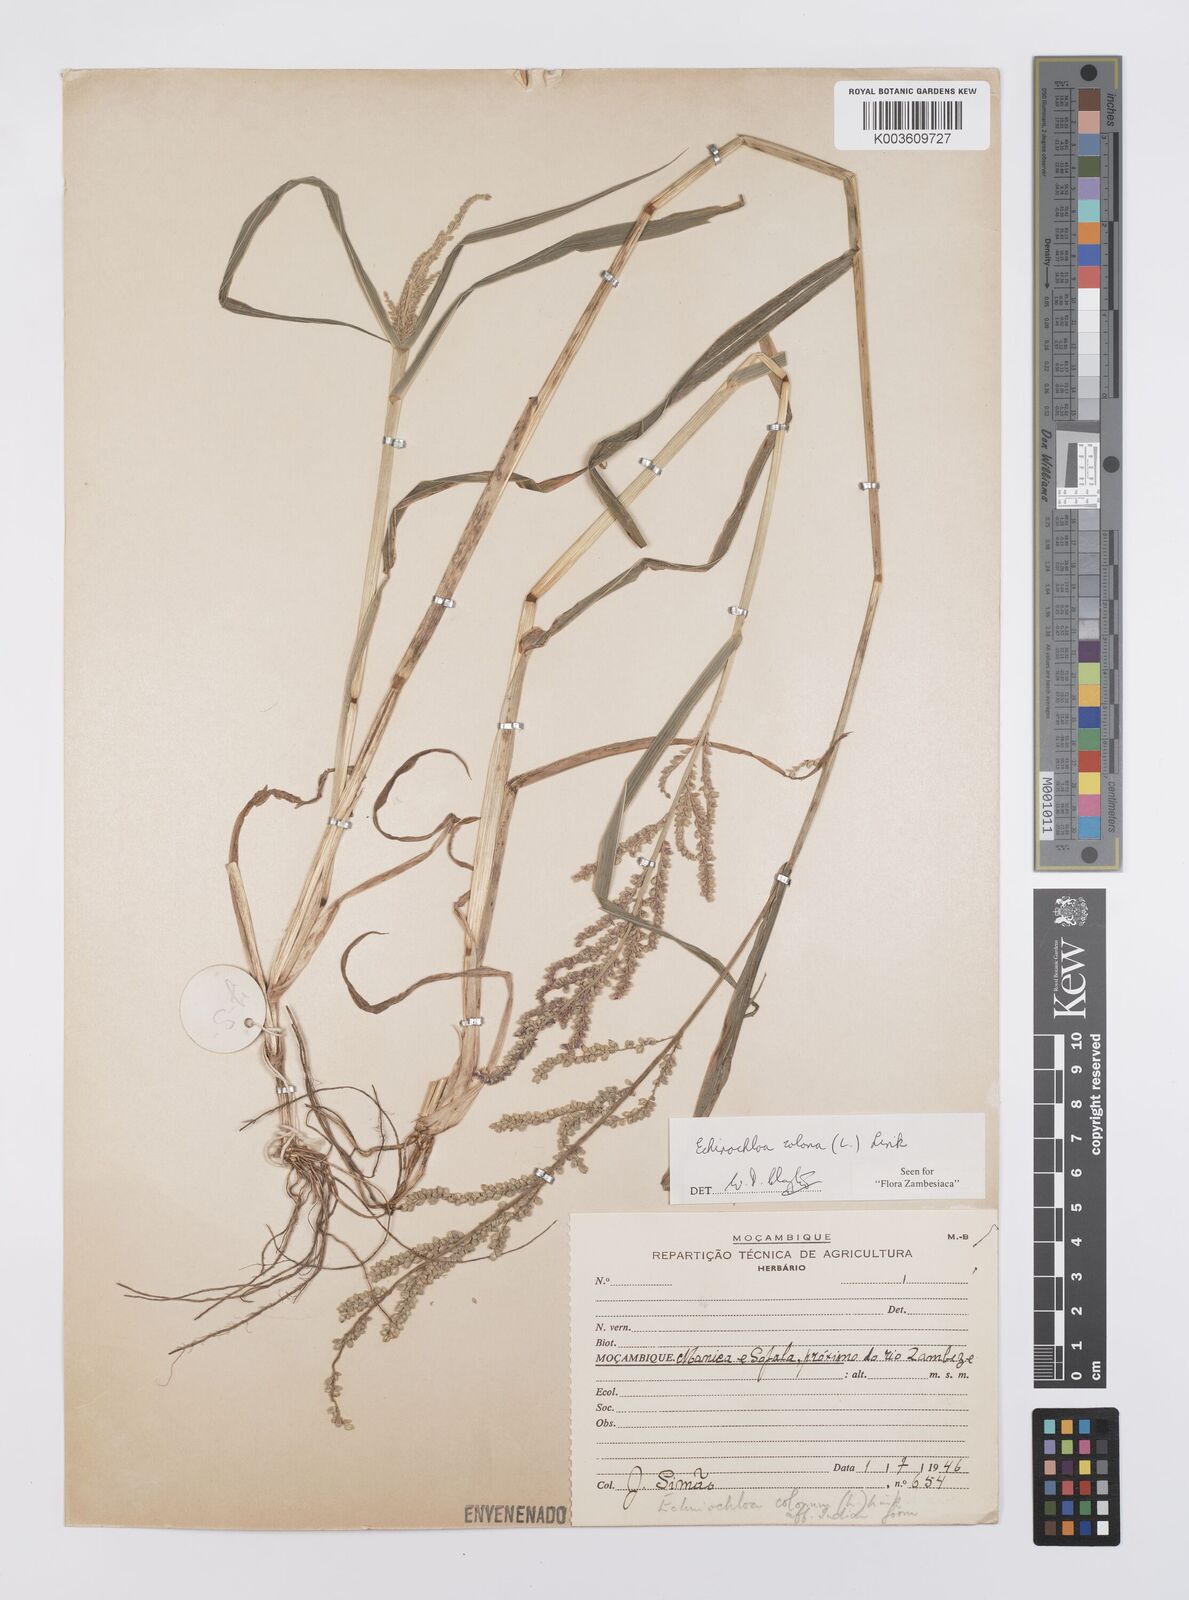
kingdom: Plantae
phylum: Tracheophyta
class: Liliopsida
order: Poales
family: Poaceae
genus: Echinochloa
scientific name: Echinochloa colonum
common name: Jungle rice
